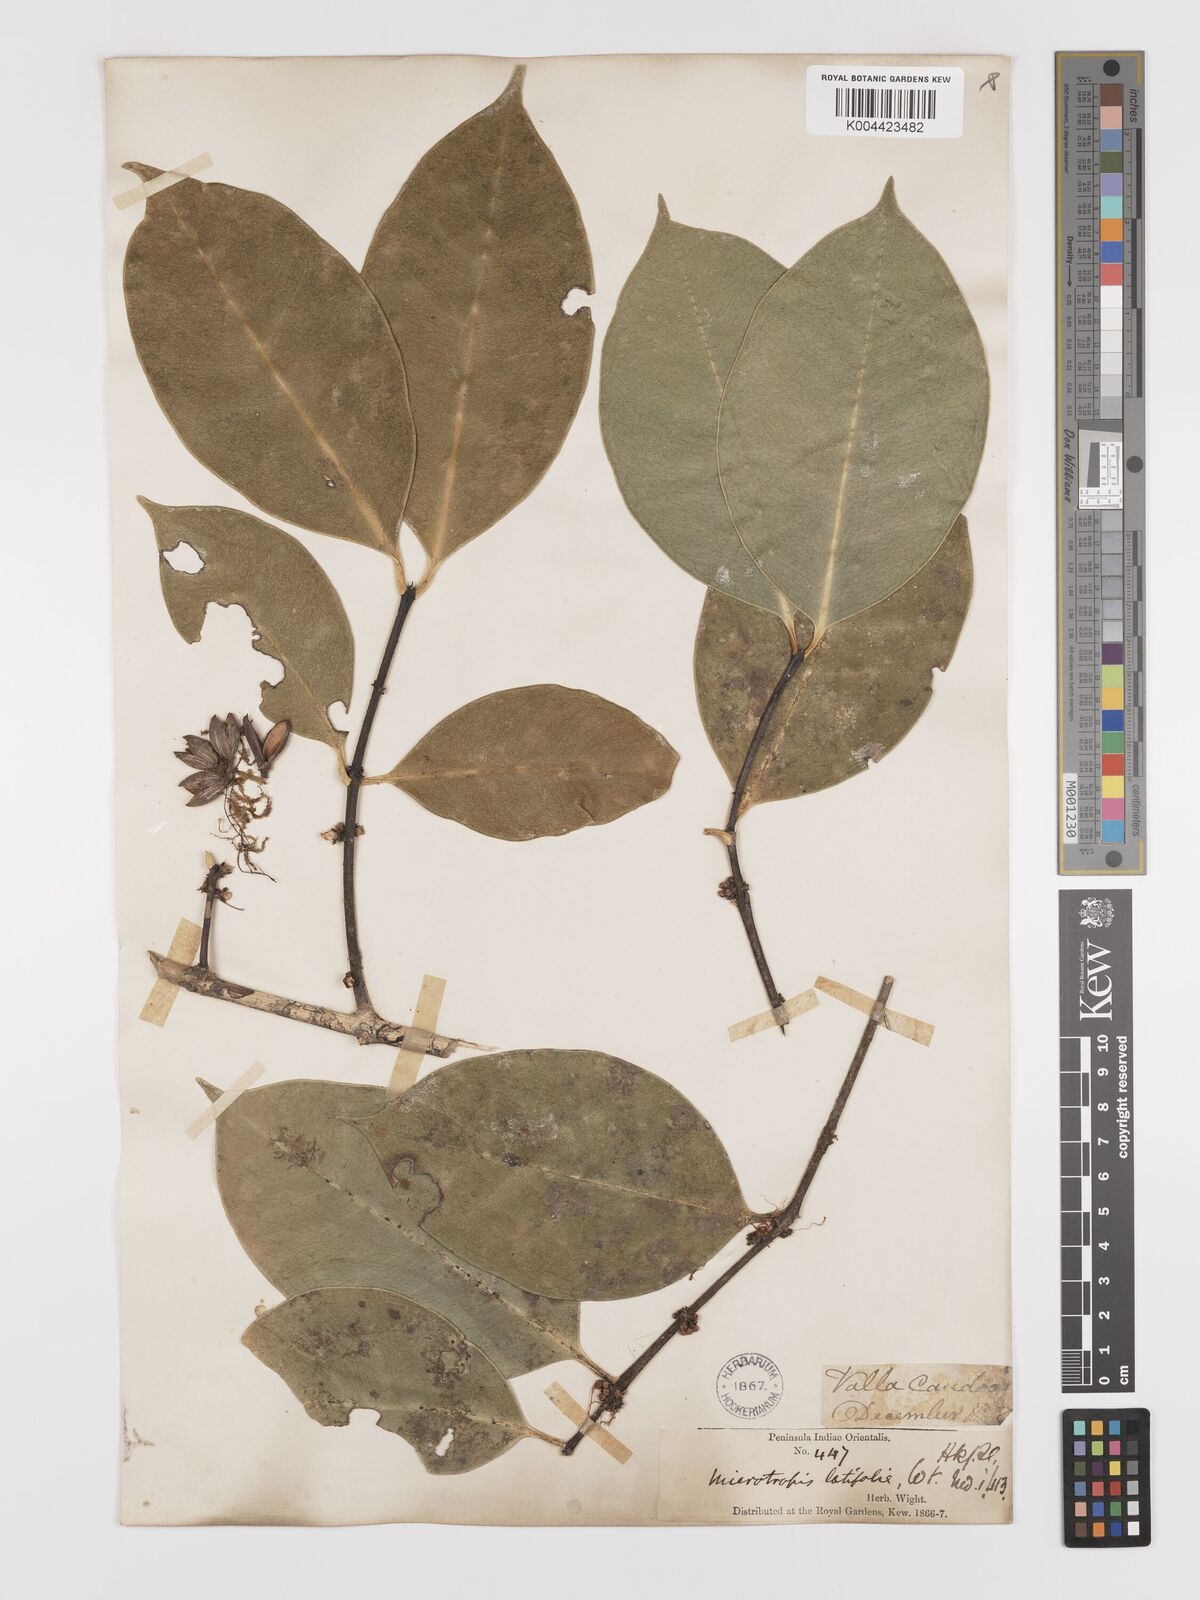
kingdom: Plantae
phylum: Tracheophyta
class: Magnoliopsida
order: Celastrales
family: Celastraceae
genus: Microtropis
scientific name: Microtropis latifolia
